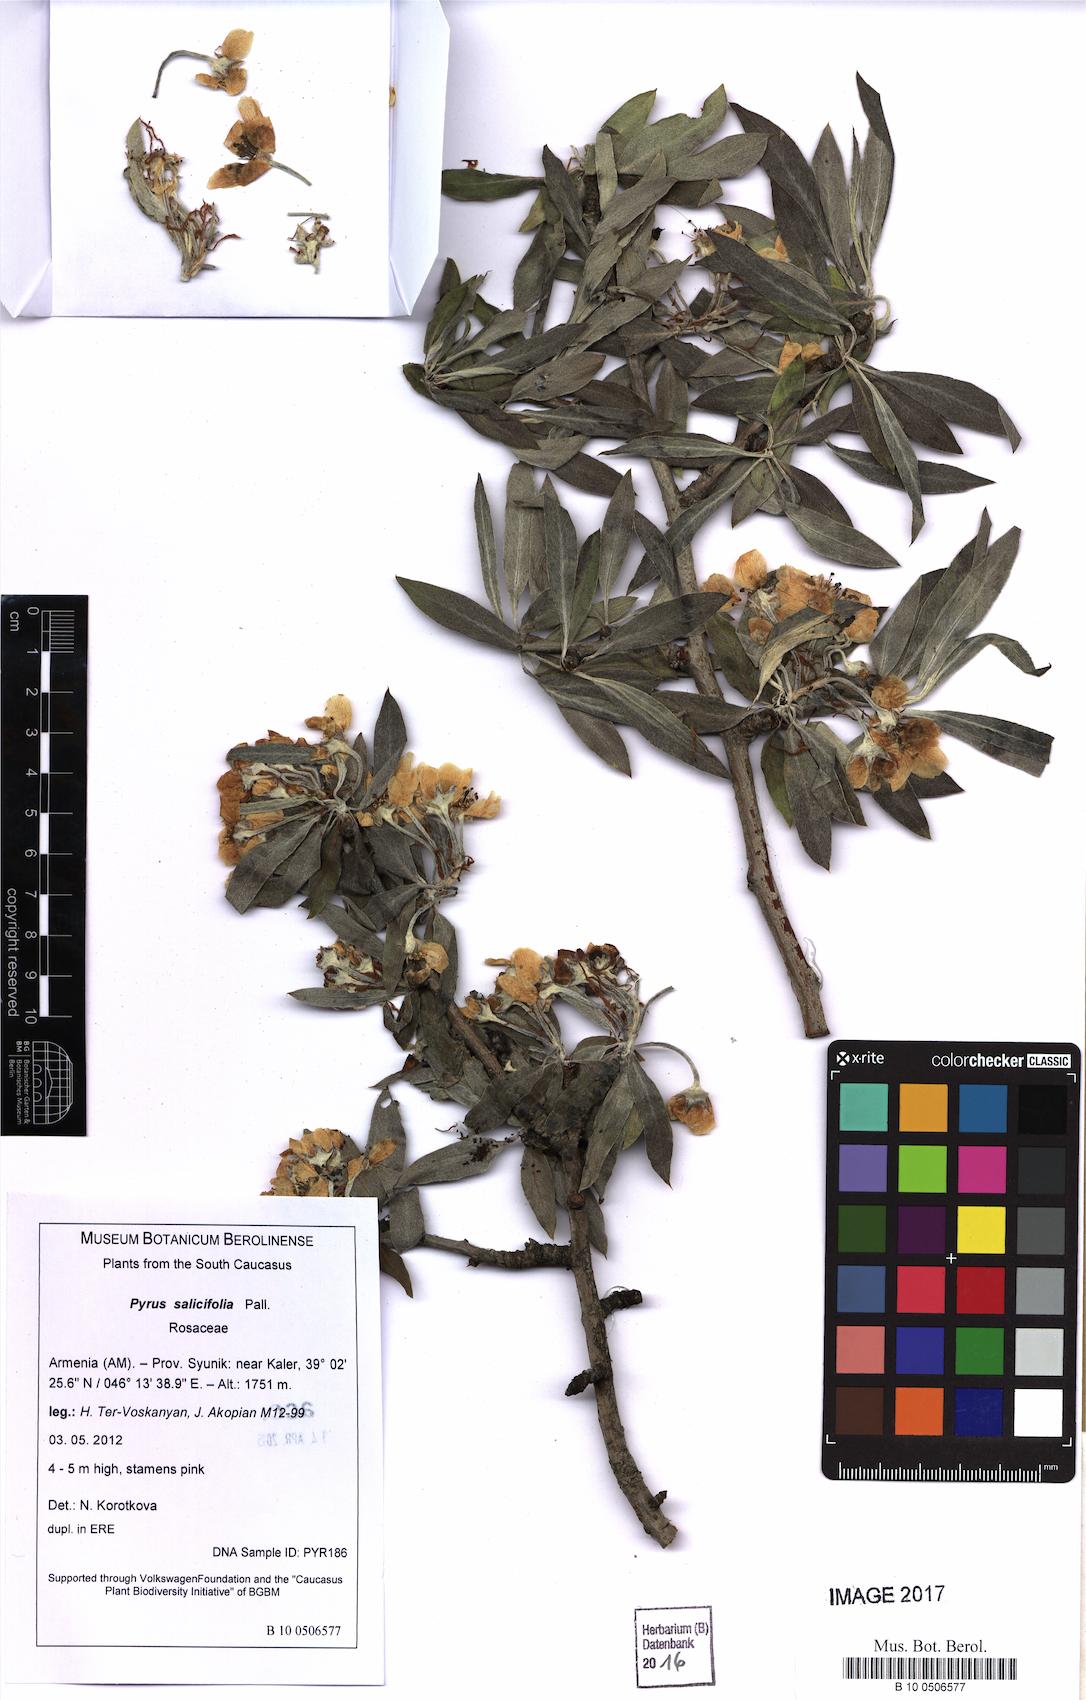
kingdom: Plantae
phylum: Tracheophyta
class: Magnoliopsida
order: Rosales
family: Rosaceae
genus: Pyrus
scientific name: Pyrus communis
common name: Pear
